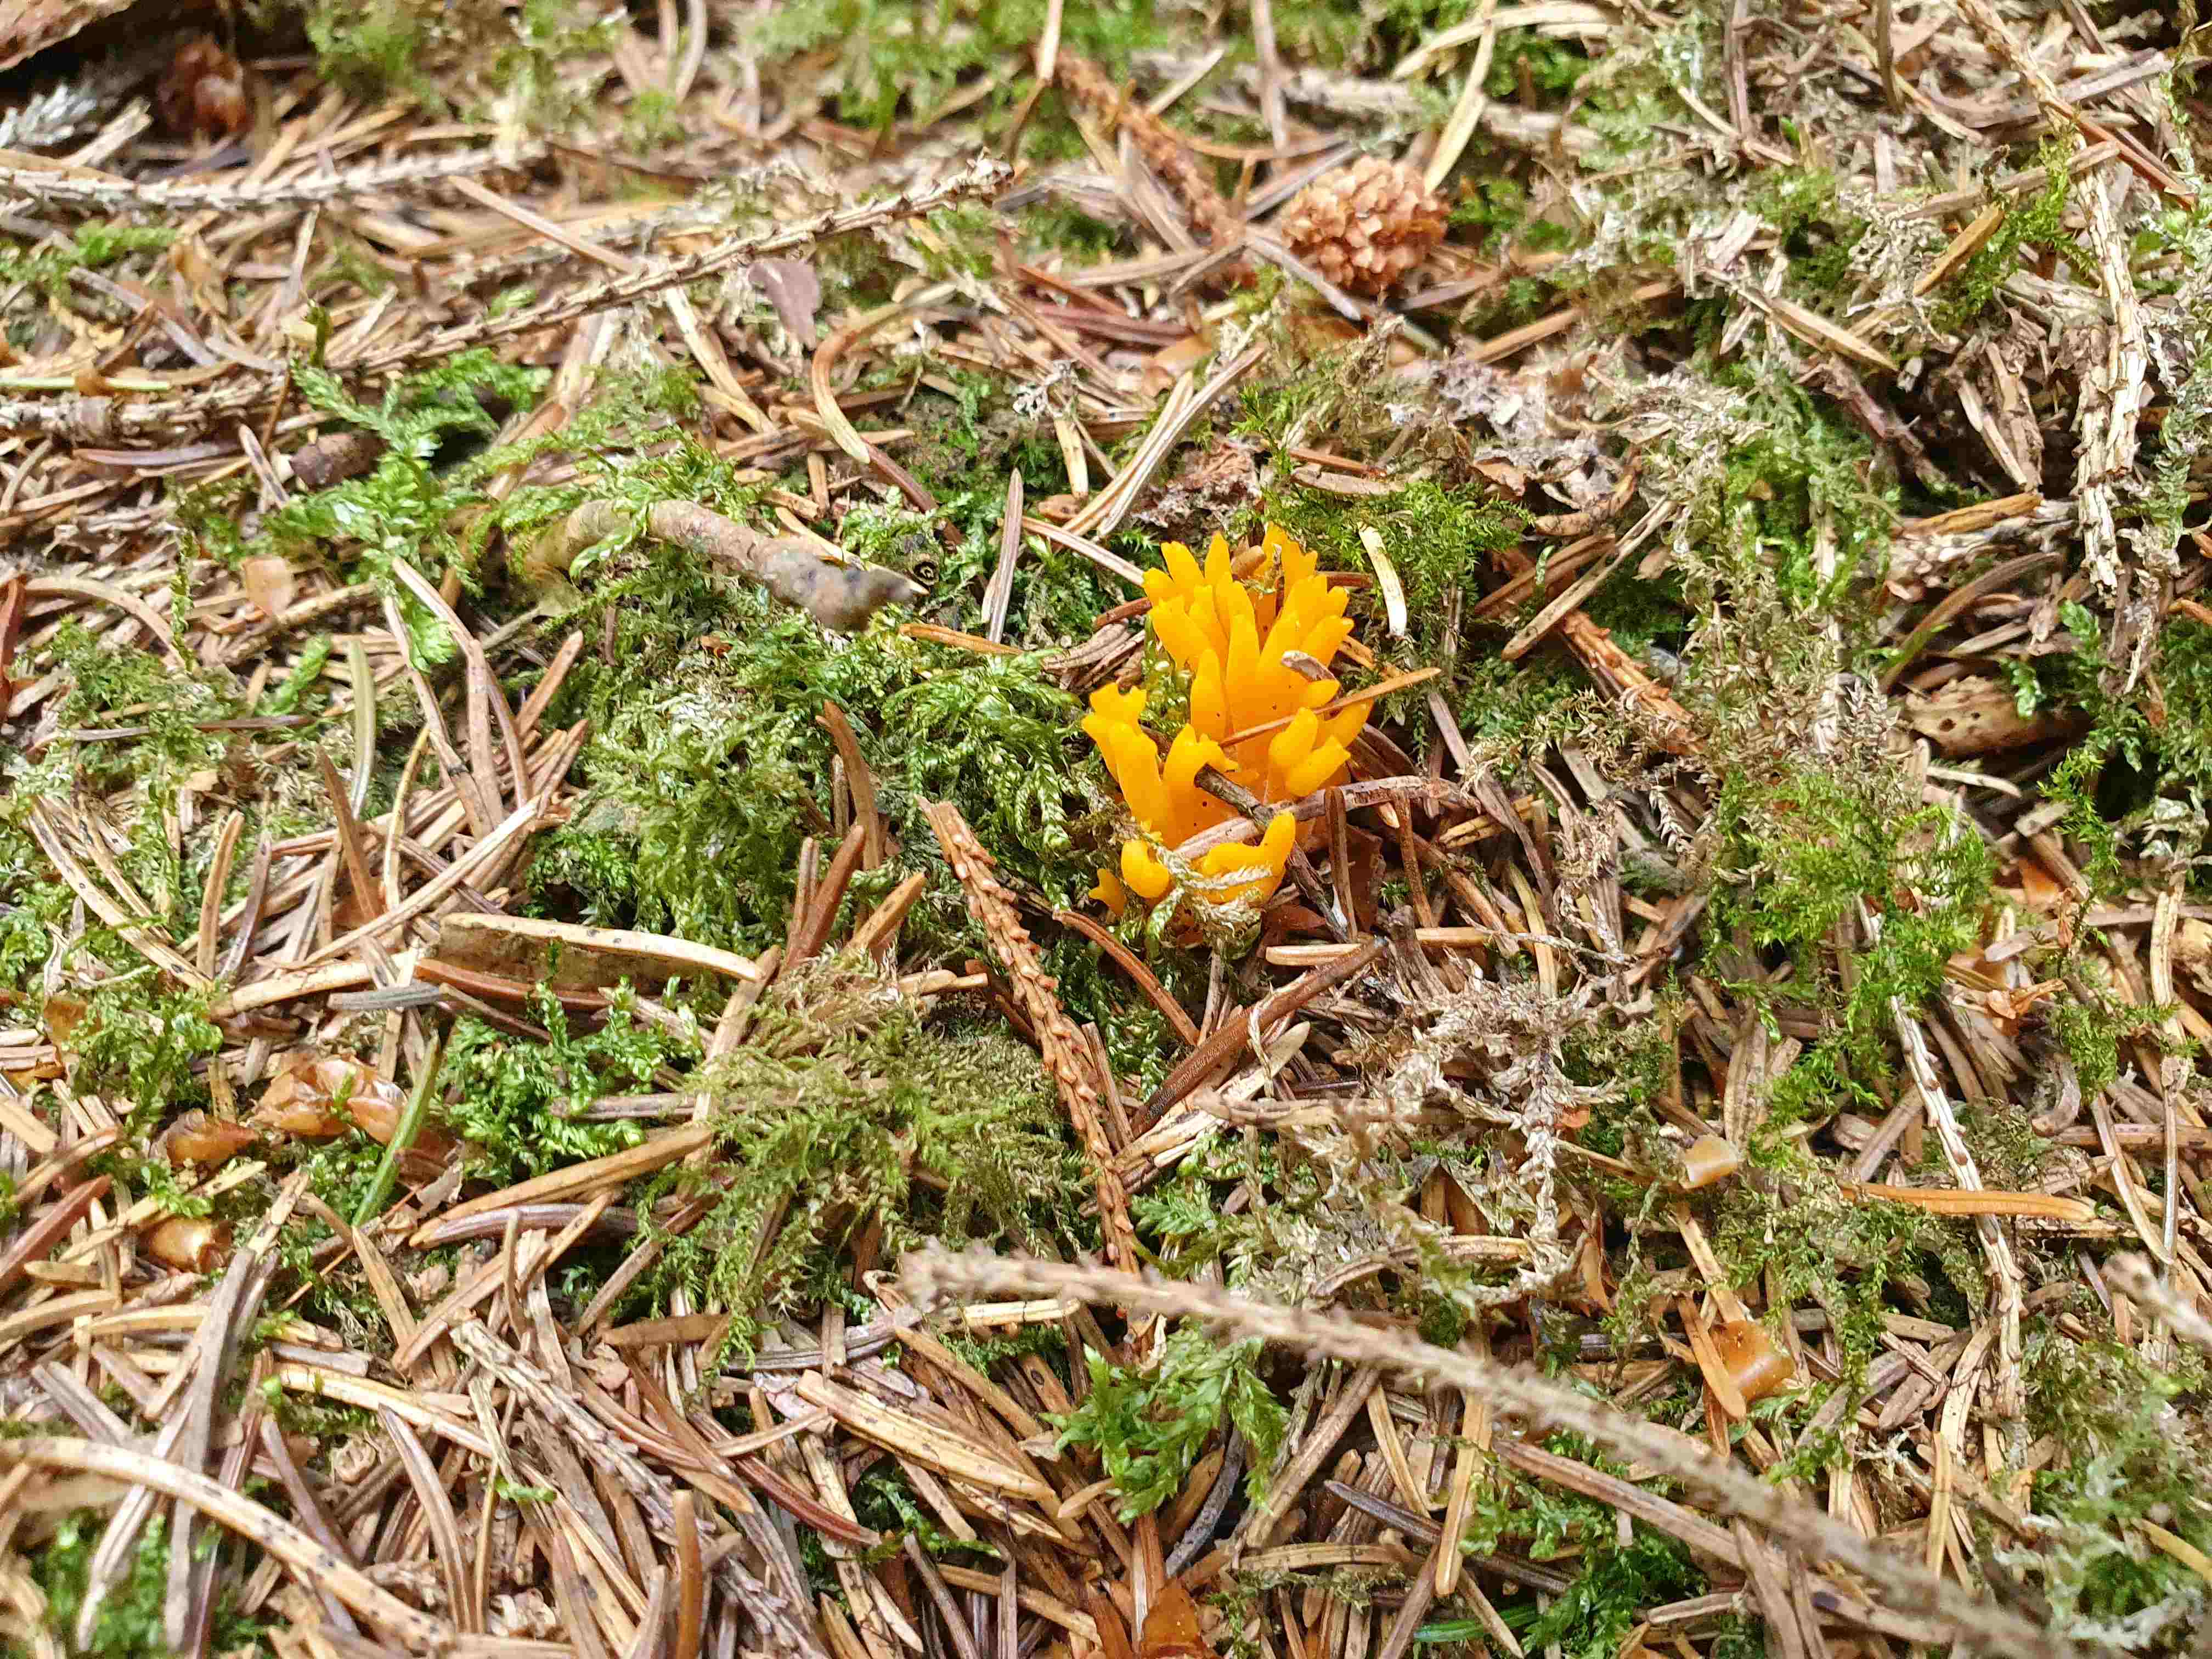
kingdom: Fungi
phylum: Basidiomycota
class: Dacrymycetes
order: Dacrymycetales
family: Dacrymycetaceae
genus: Calocera
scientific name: Calocera viscosa
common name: almindelig guldgaffel
